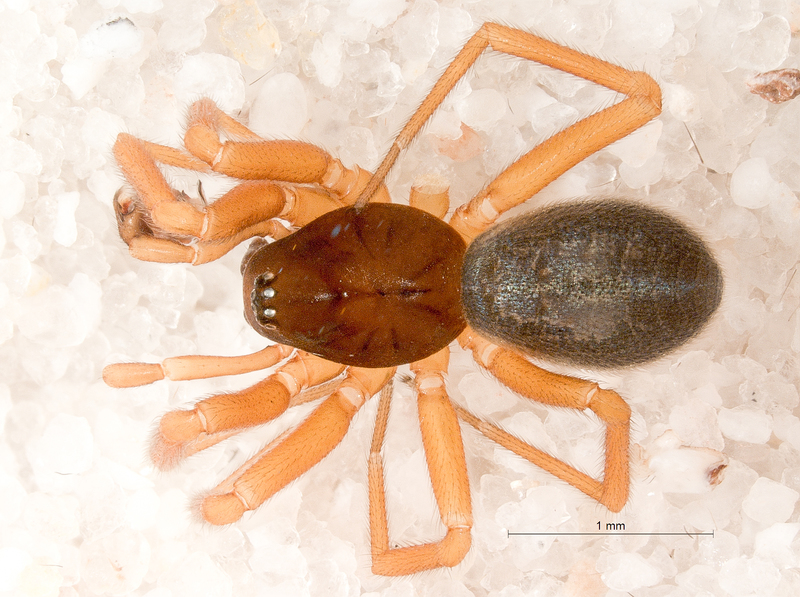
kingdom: Animalia
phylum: Arthropoda
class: Arachnida
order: Araneae
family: Linyphiidae
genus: Walckenaeria
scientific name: Walckenaeria obtusa
